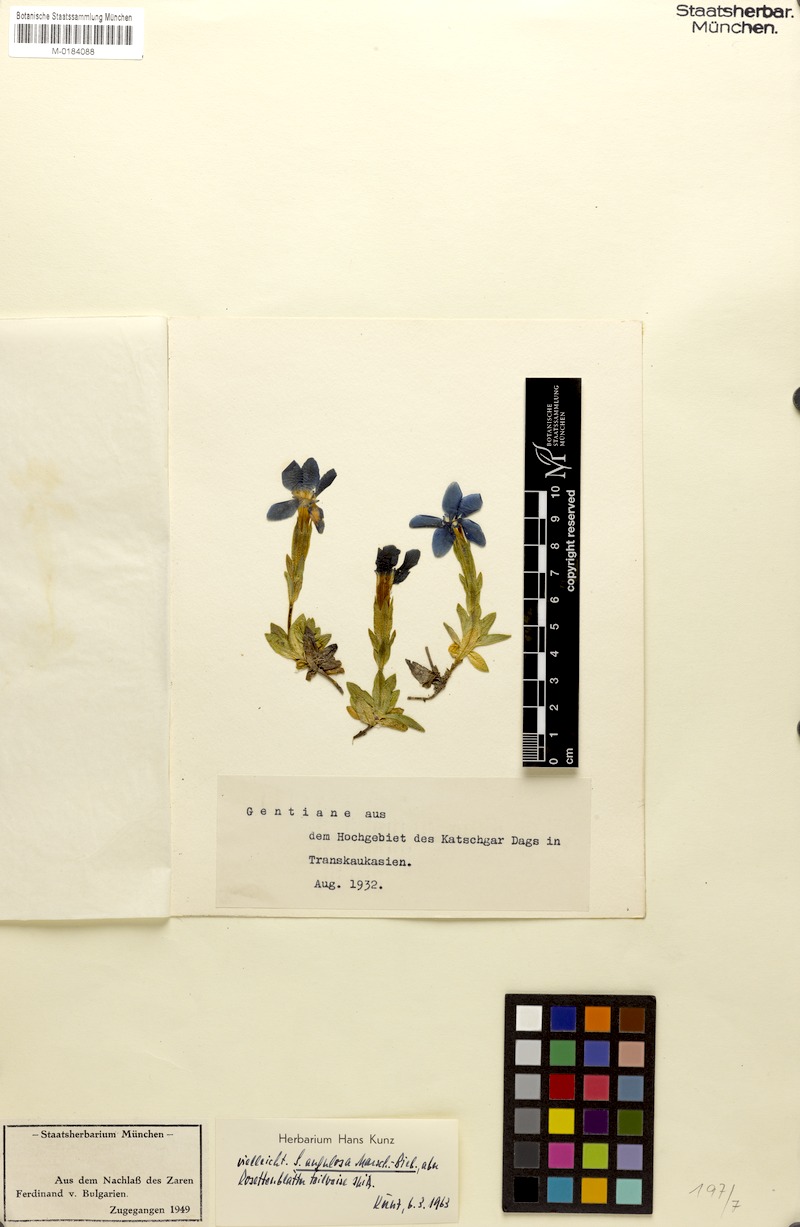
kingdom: Plantae
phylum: Tracheophyta
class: Magnoliopsida
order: Gentianales
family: Gentianaceae
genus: Gentiana
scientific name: Gentiana verna
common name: Spring gentian
